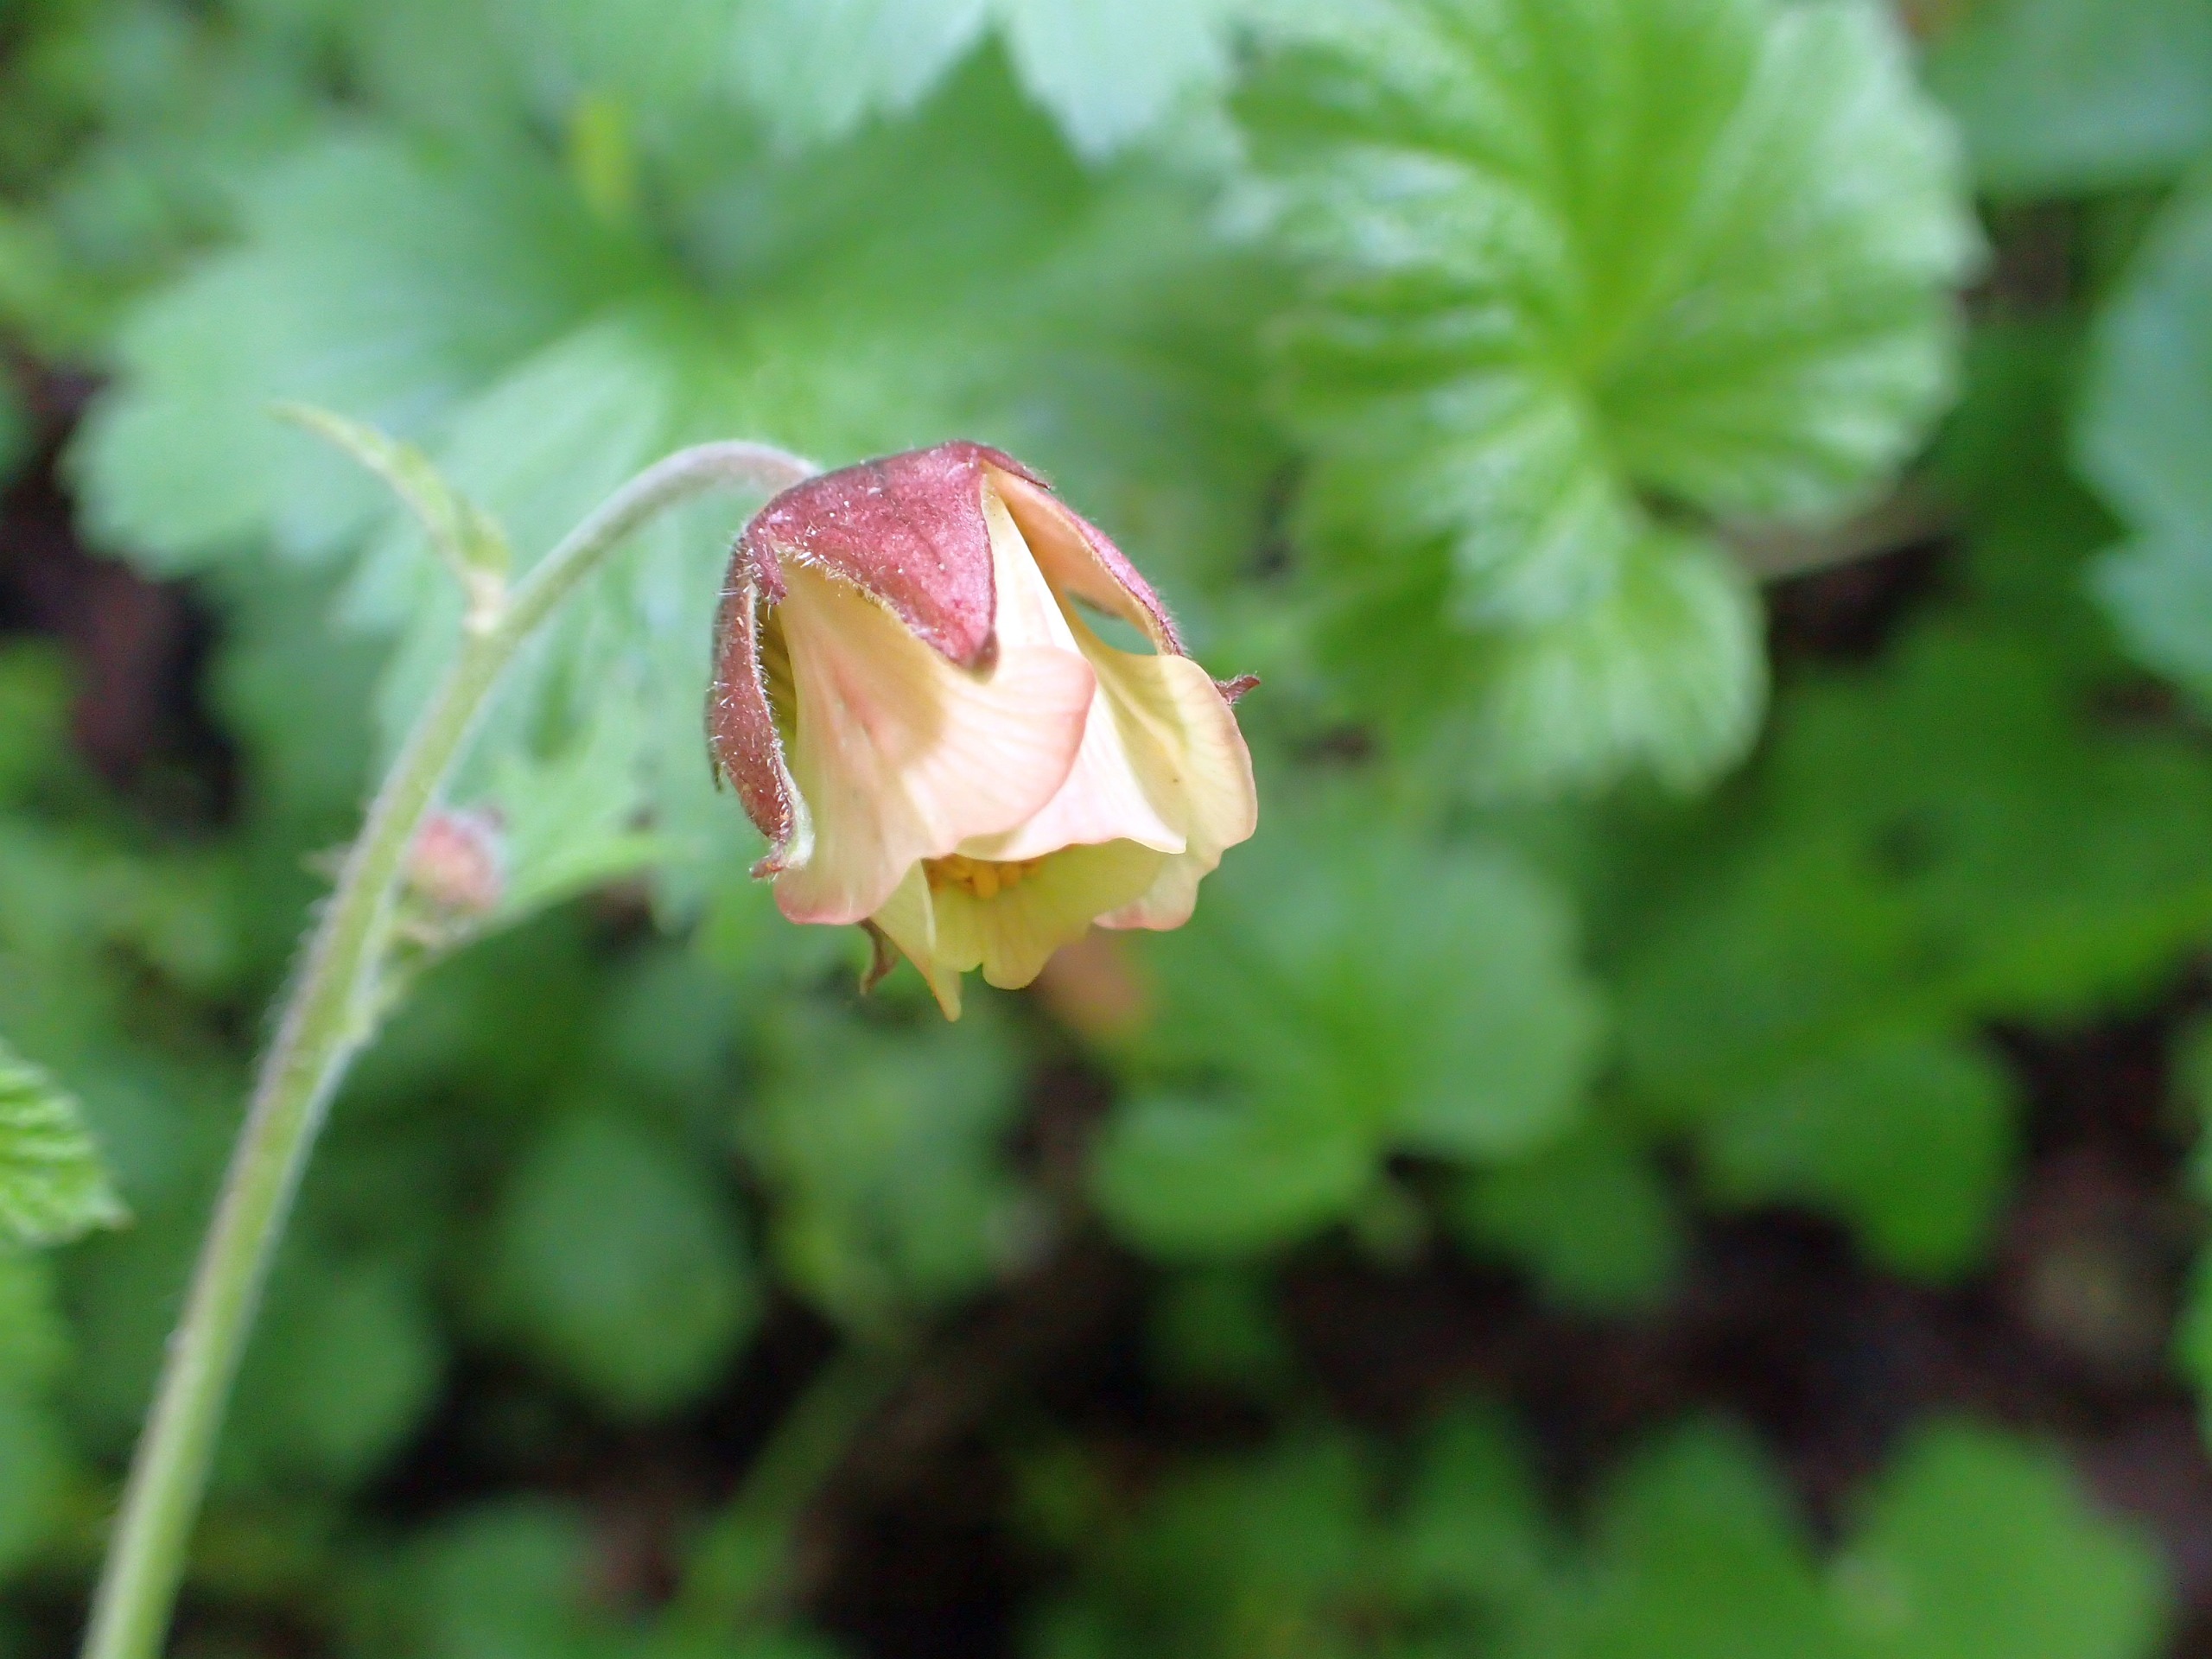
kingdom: Plantae
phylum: Tracheophyta
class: Magnoliopsida
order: Rosales
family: Rosaceae
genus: Geum
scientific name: Geum
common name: Høj nellikerod
